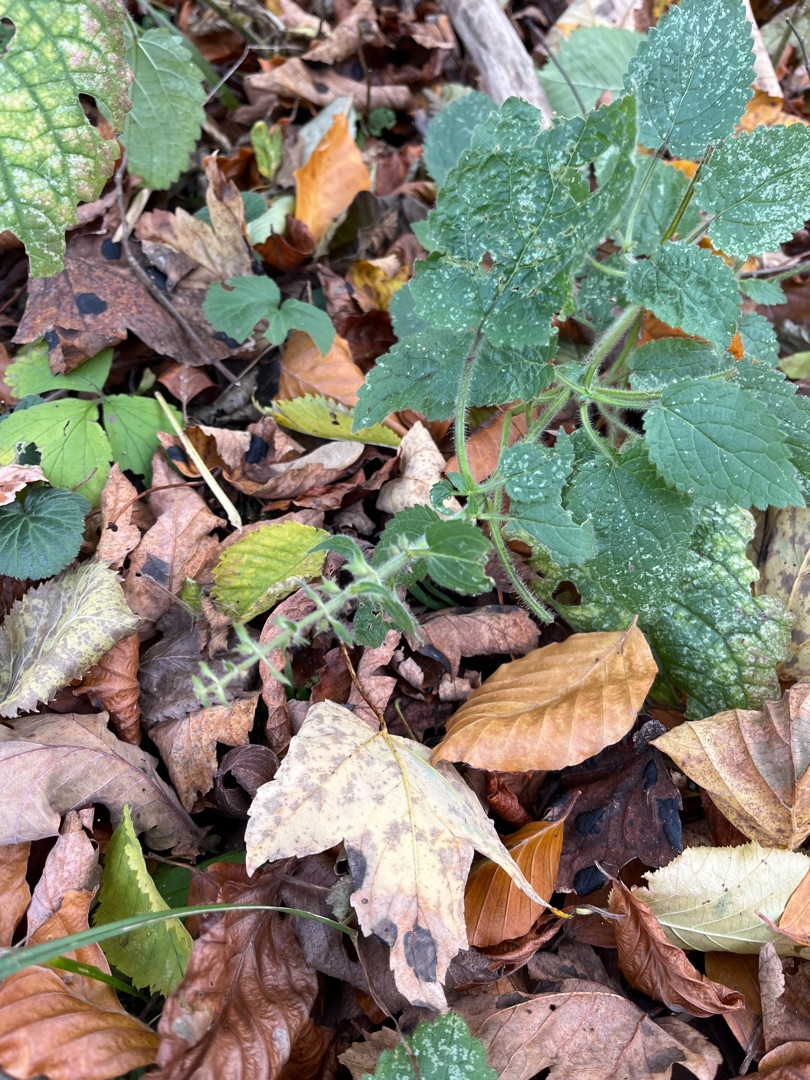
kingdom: Plantae
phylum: Tracheophyta
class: Magnoliopsida
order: Lamiales
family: Lamiaceae
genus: Stachys
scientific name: Stachys sylvatica
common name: Skov-galtetand
